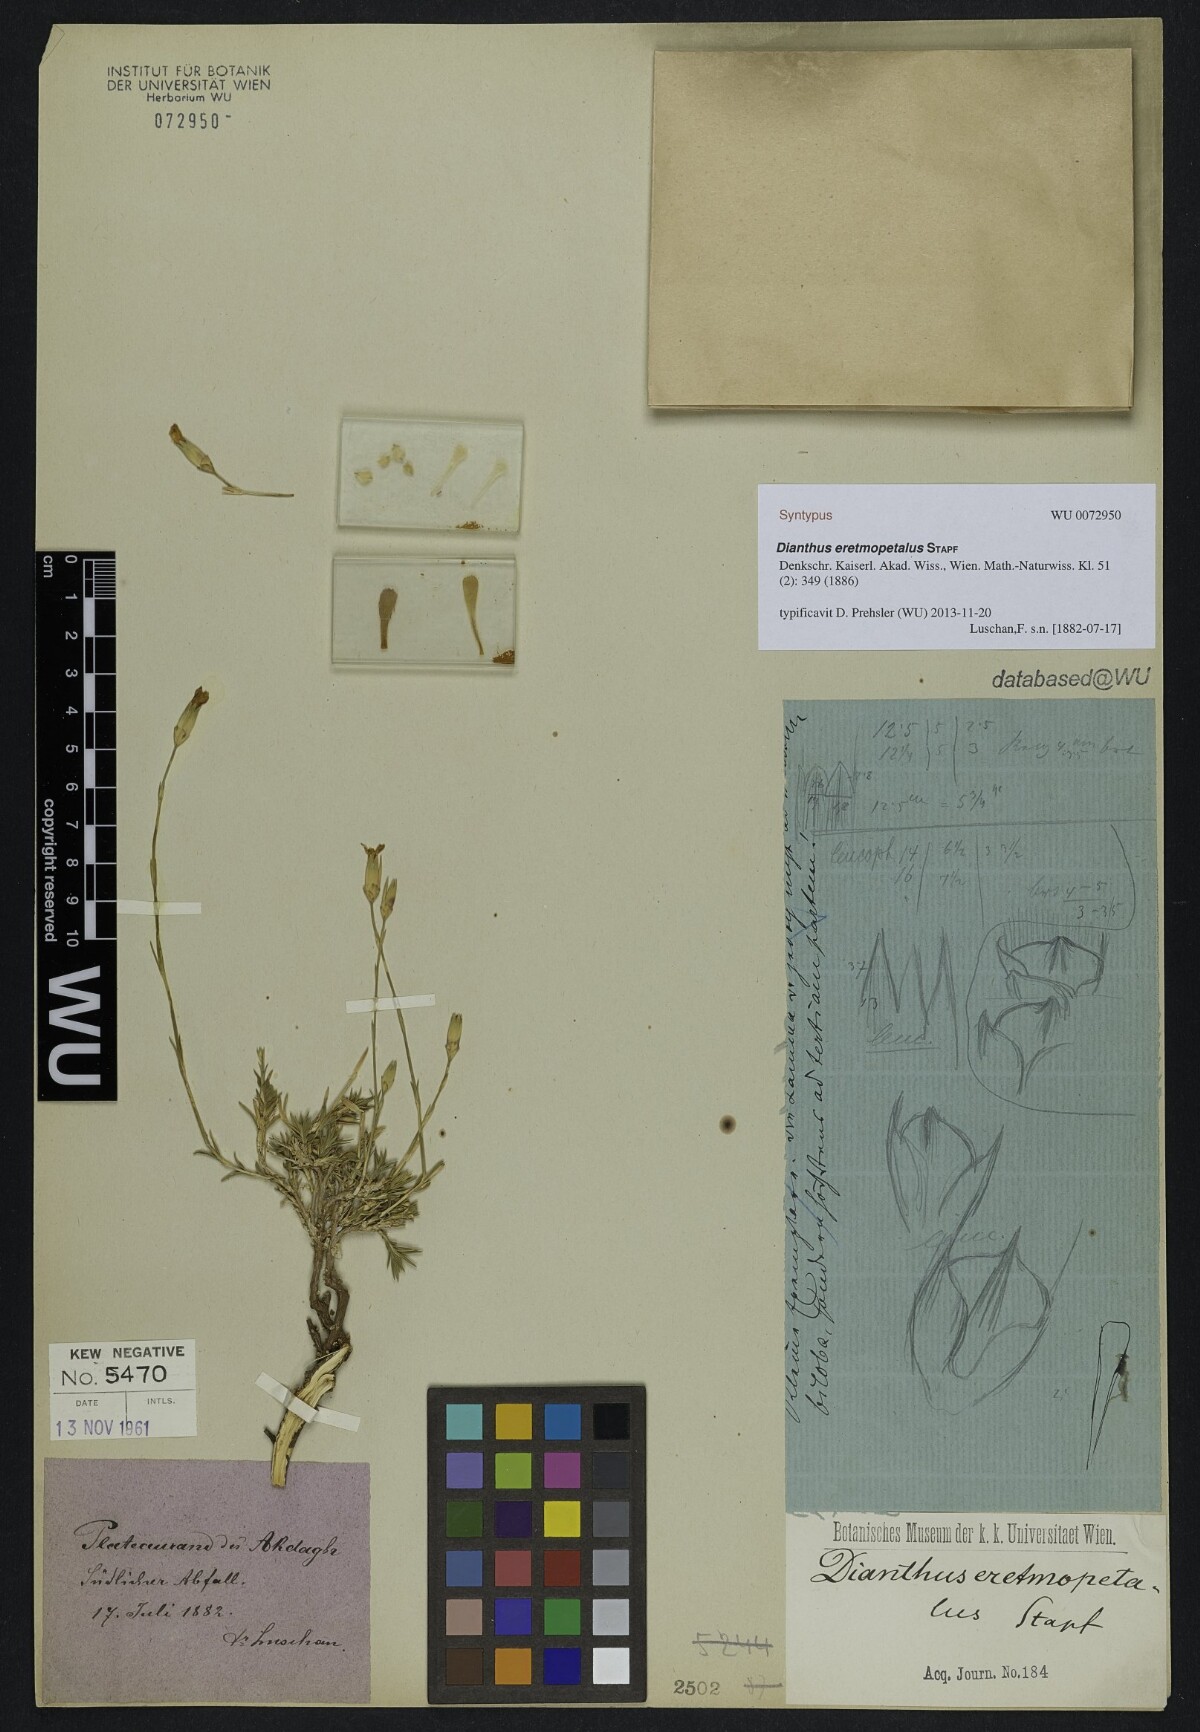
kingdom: Plantae
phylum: Tracheophyta
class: Magnoliopsida
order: Caryophyllales
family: Caryophyllaceae
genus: Dianthus
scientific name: Dianthus eretmopetalus
